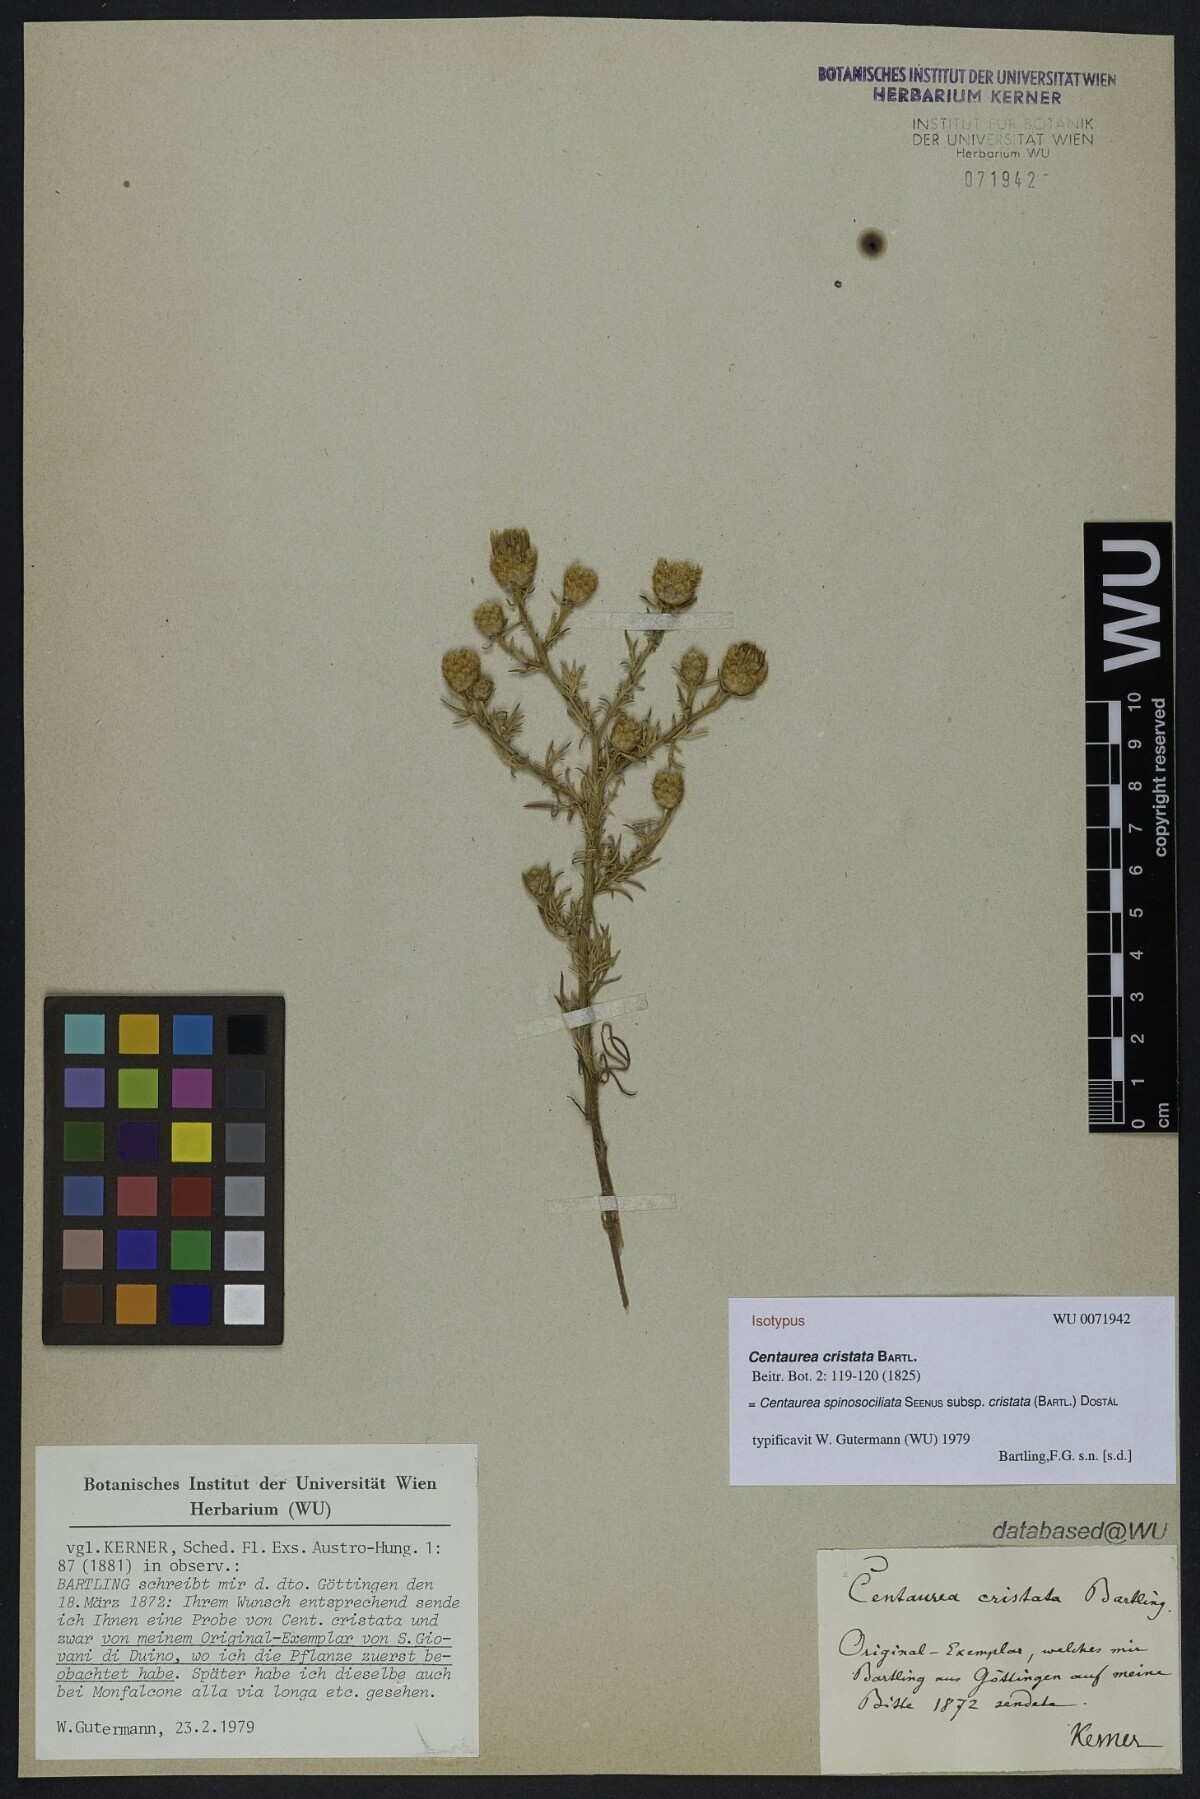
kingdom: Plantae
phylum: Tracheophyta
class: Magnoliopsida
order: Asterales
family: Asteraceae
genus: Centaurea
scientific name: Centaurea cristata
